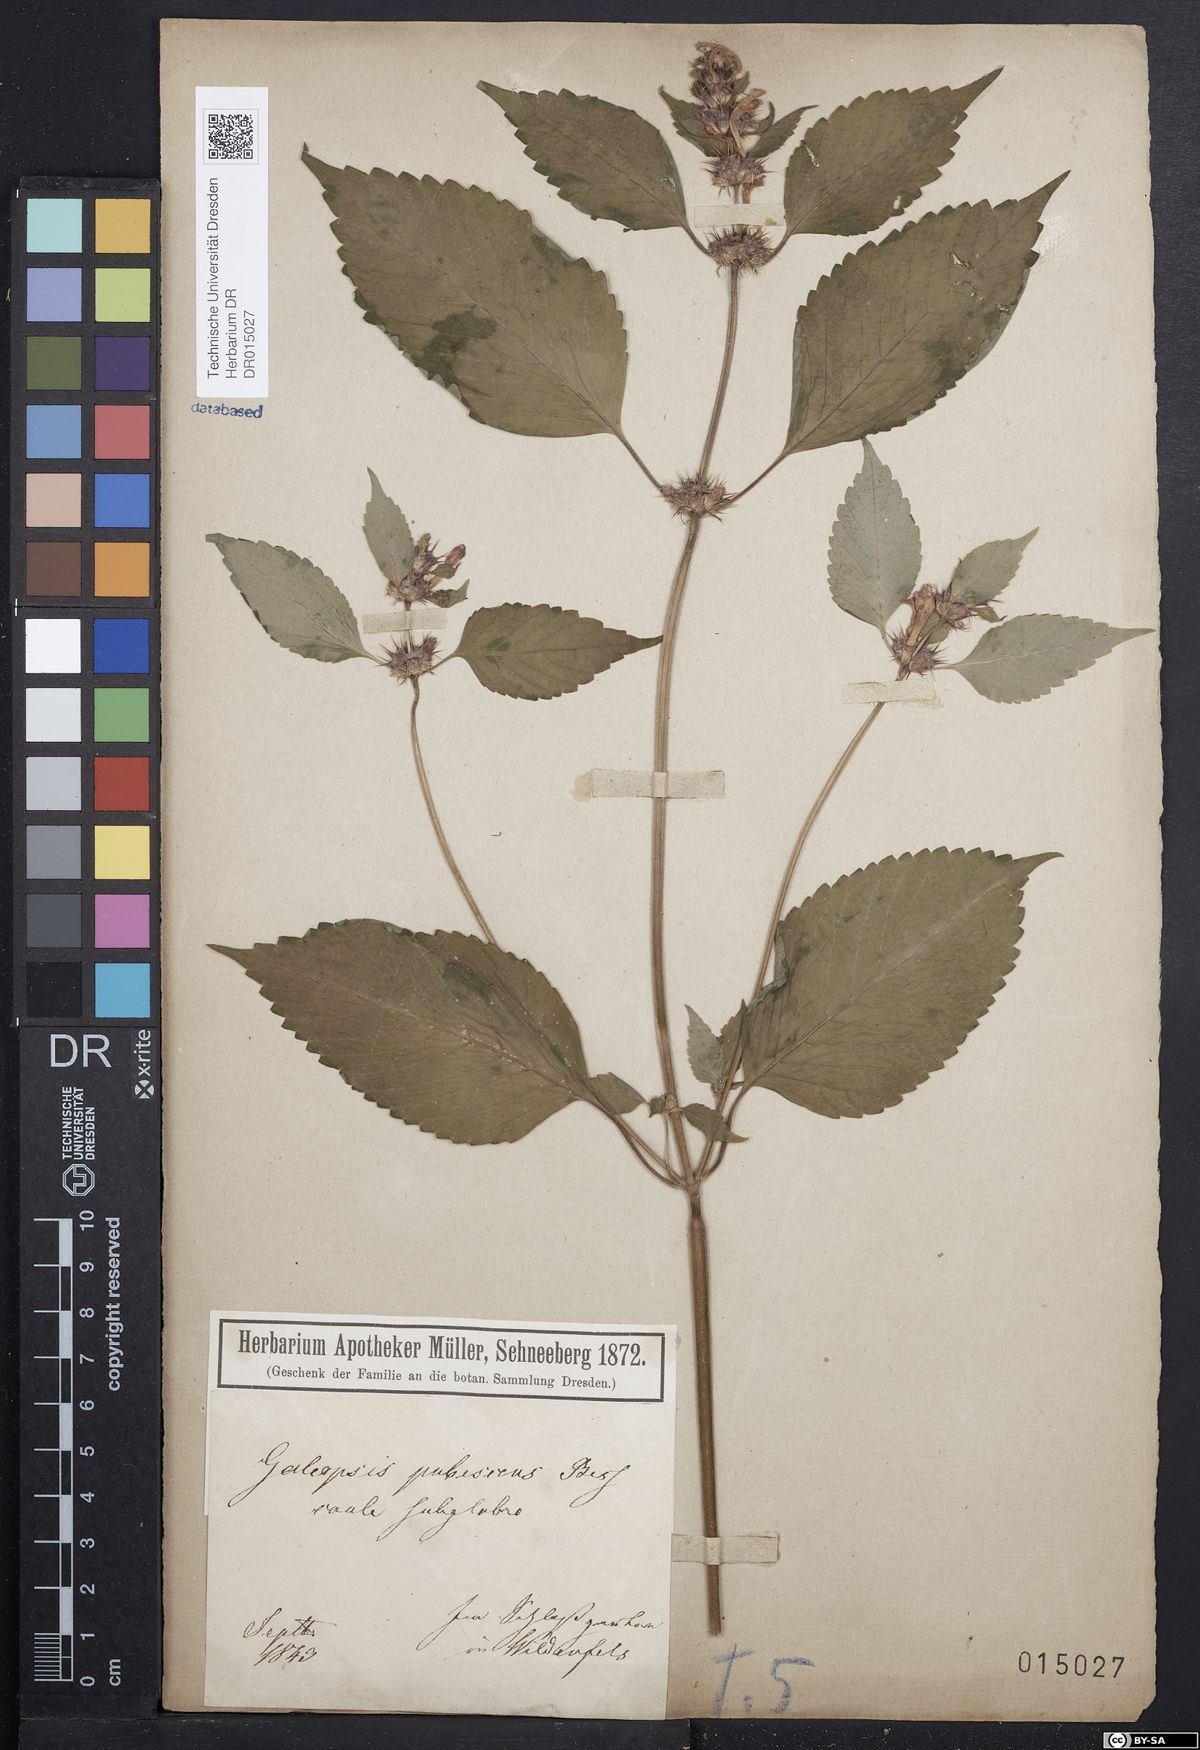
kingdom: Plantae
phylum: Tracheophyta
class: Magnoliopsida
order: Lamiales
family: Lamiaceae
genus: Galeopsis
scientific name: Galeopsis pubescens
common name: Downy hemp-nettle
